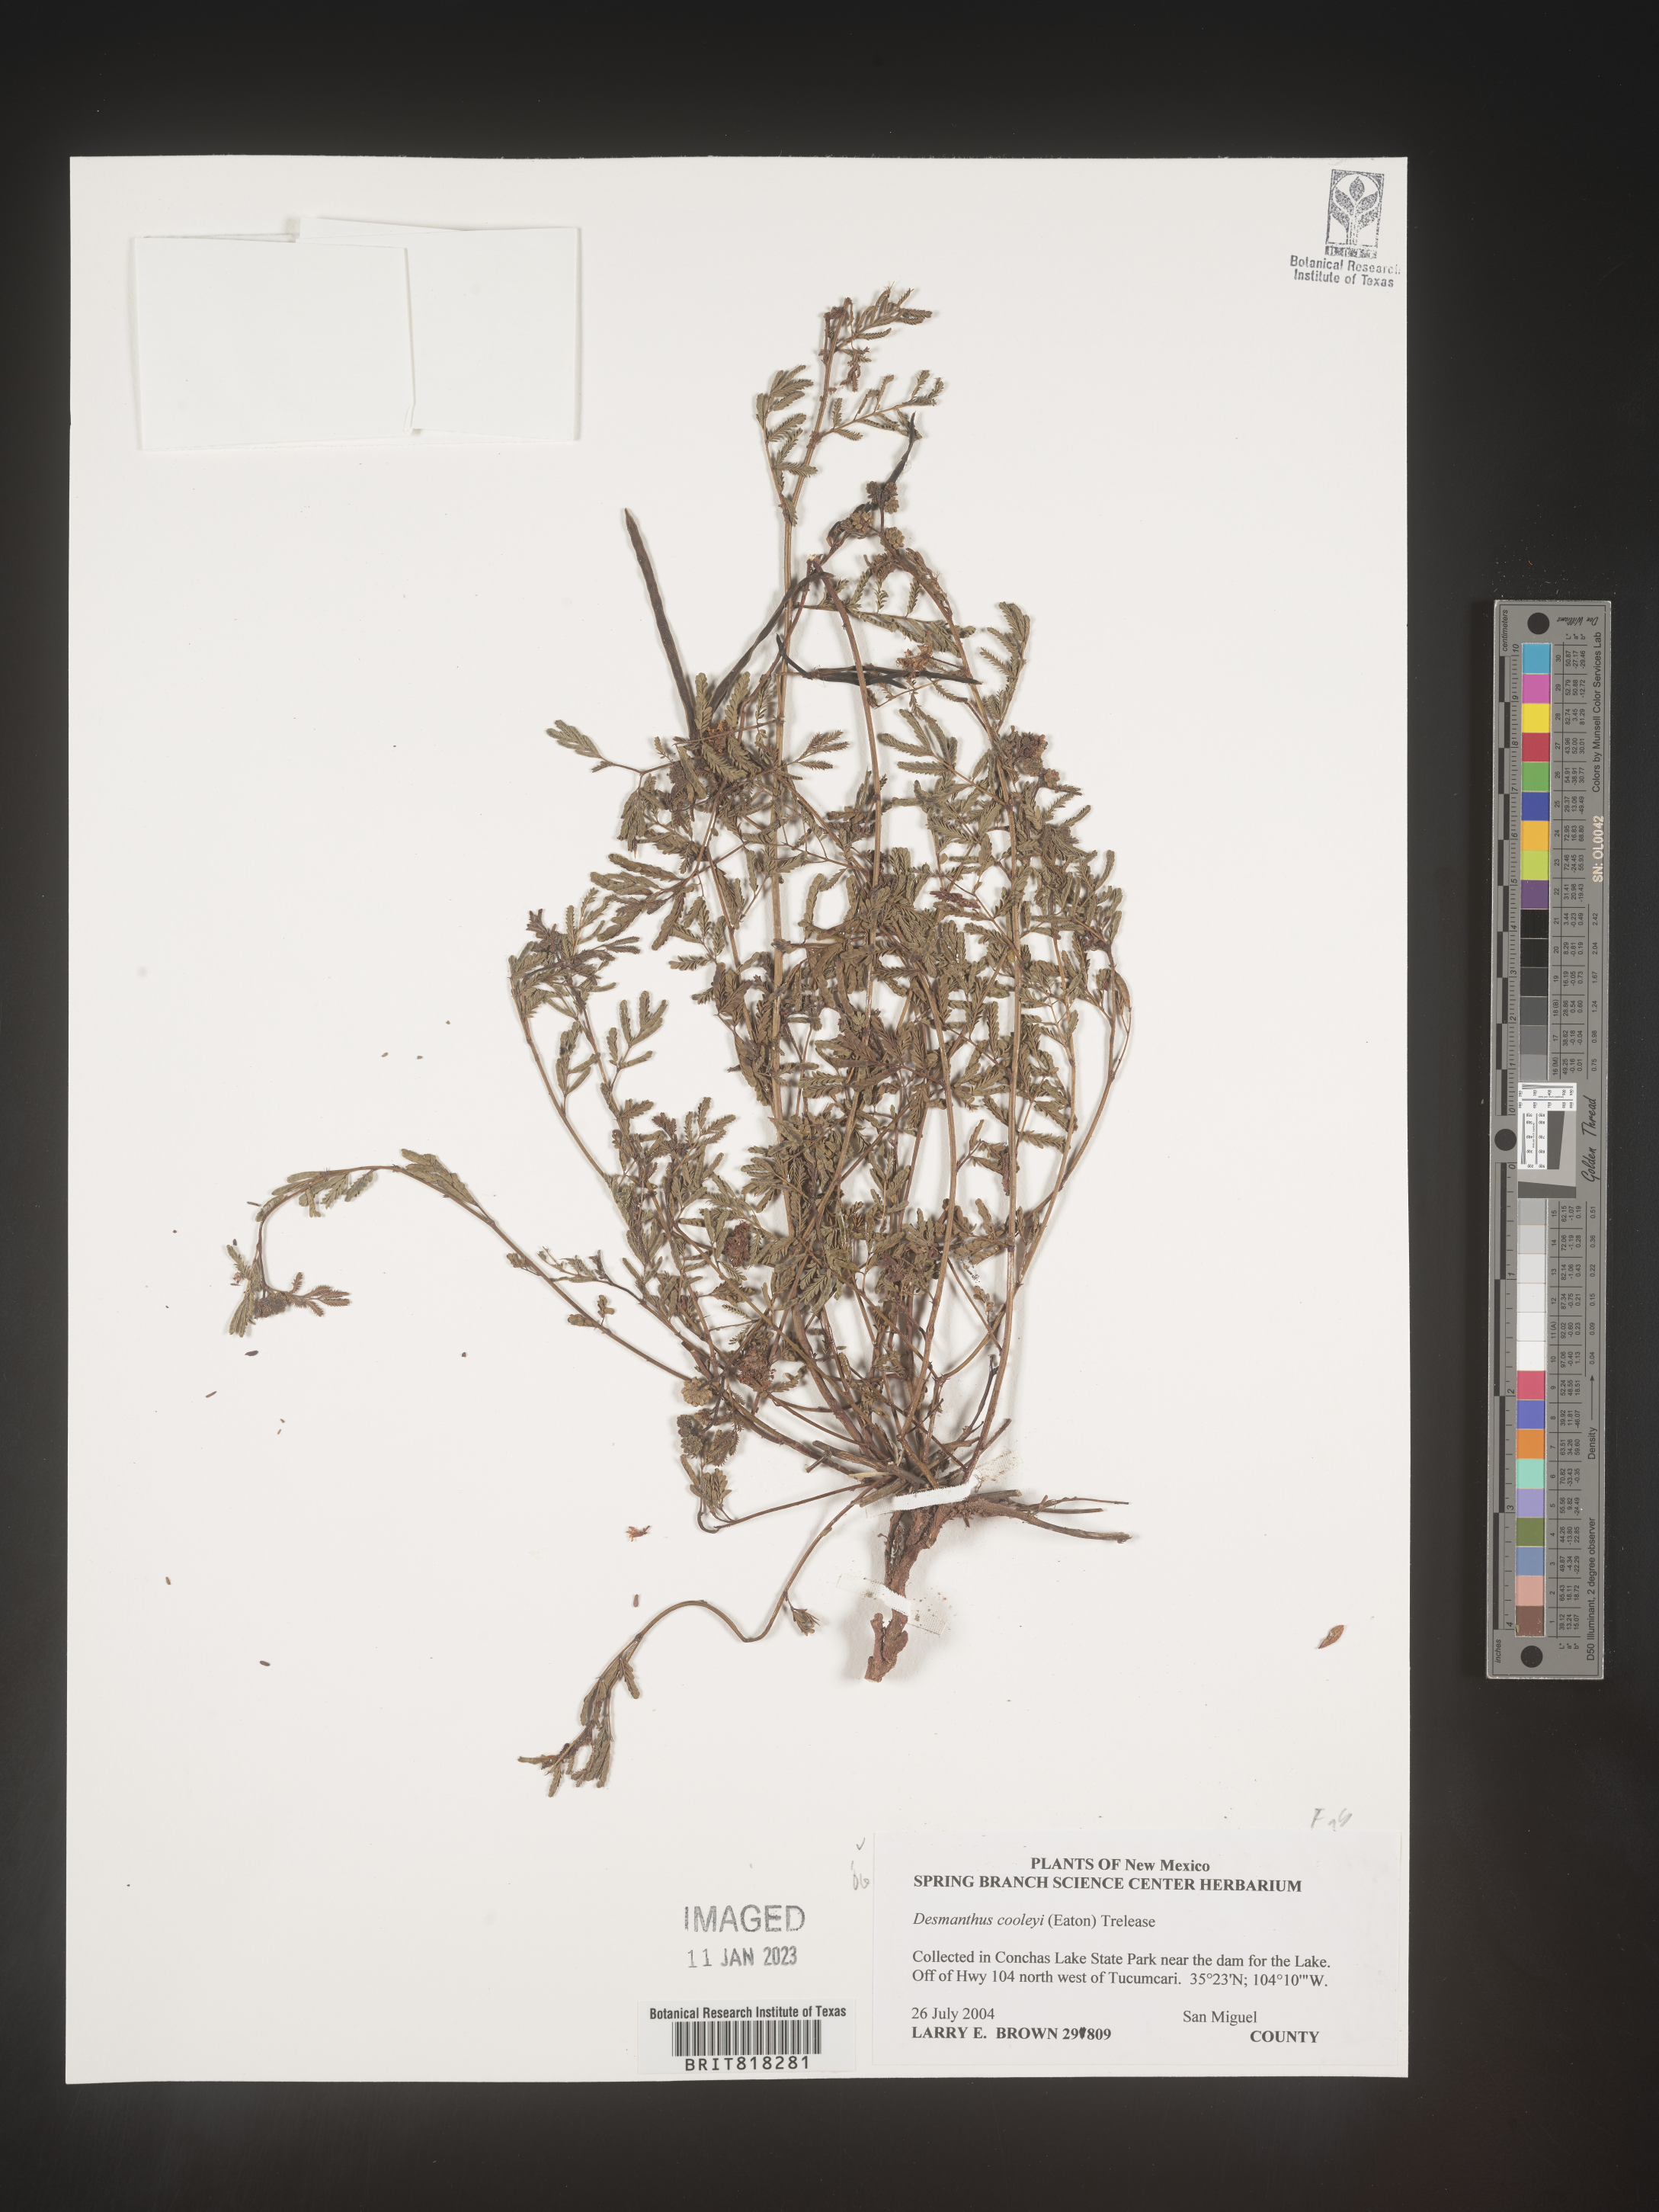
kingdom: Plantae
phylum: Tracheophyta
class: Magnoliopsida
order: Fabales
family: Fabaceae
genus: Desmanthus
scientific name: Desmanthus cooleyi
